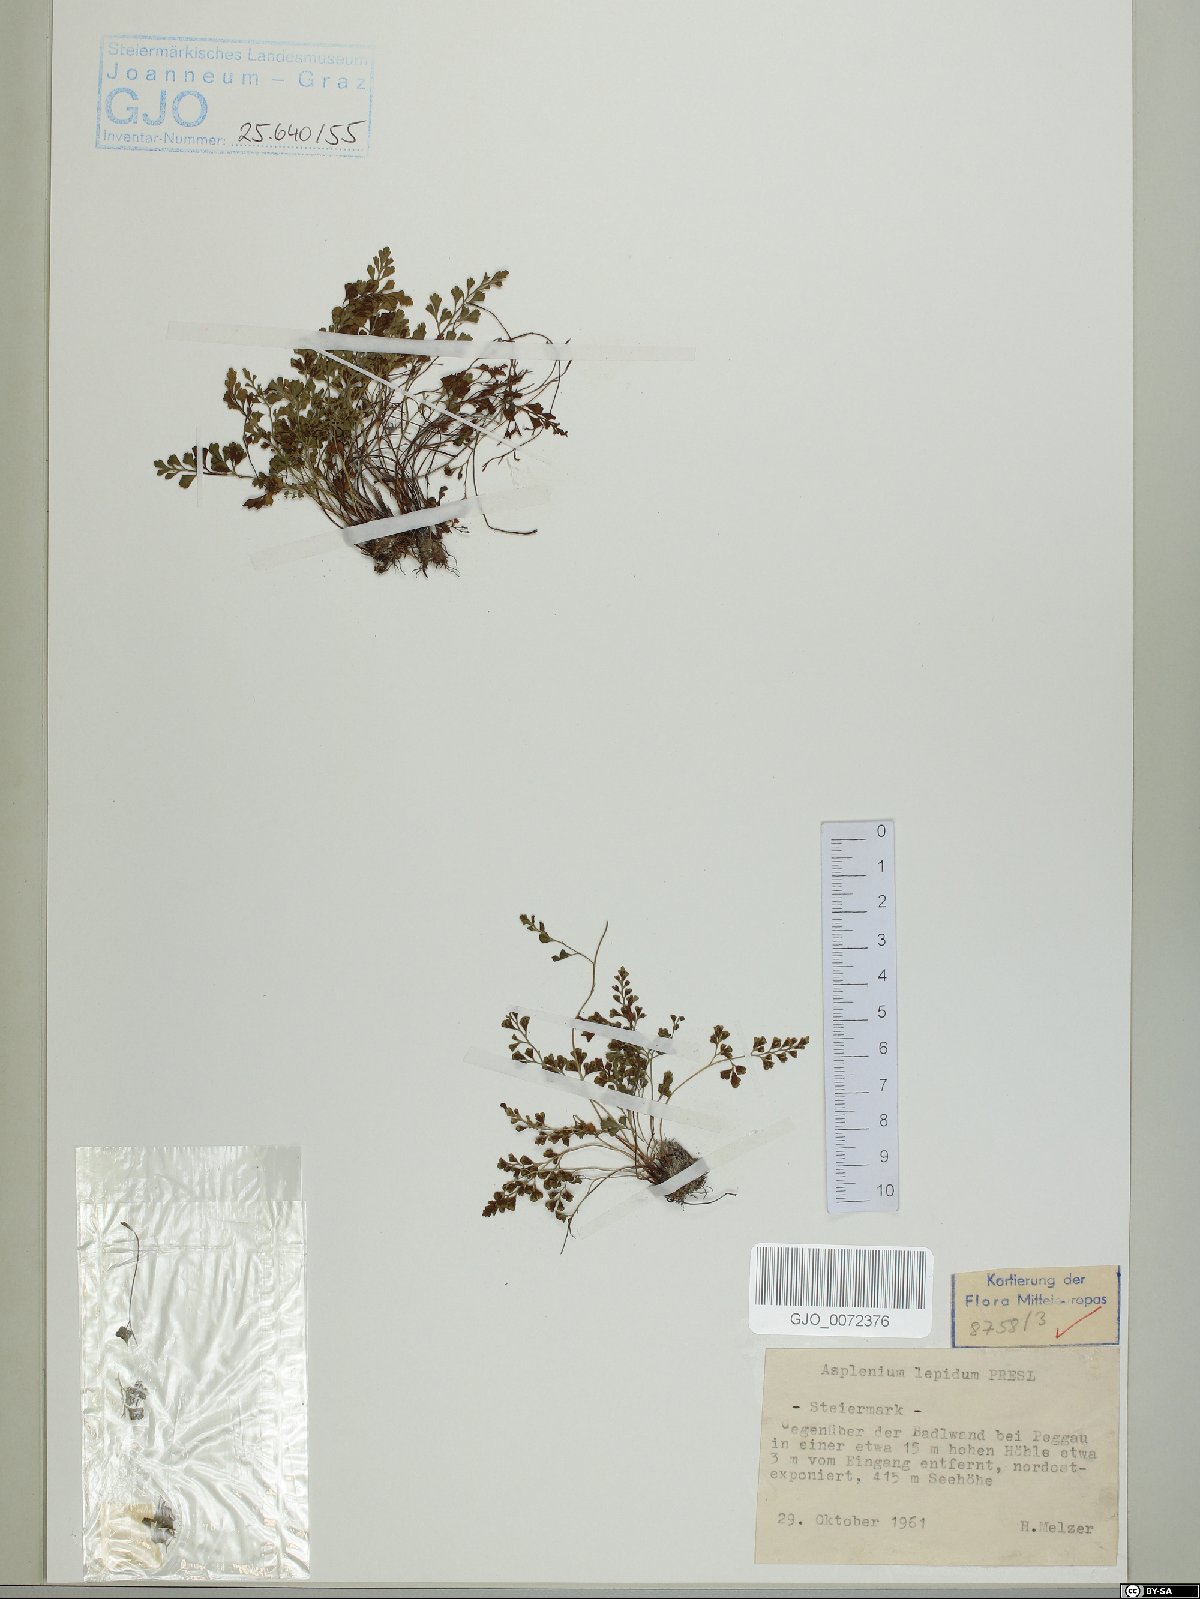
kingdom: Plantae
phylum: Tracheophyta
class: Polypodiopsida
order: Polypodiales
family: Aspleniaceae
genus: Asplenium
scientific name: Asplenium lepidum
